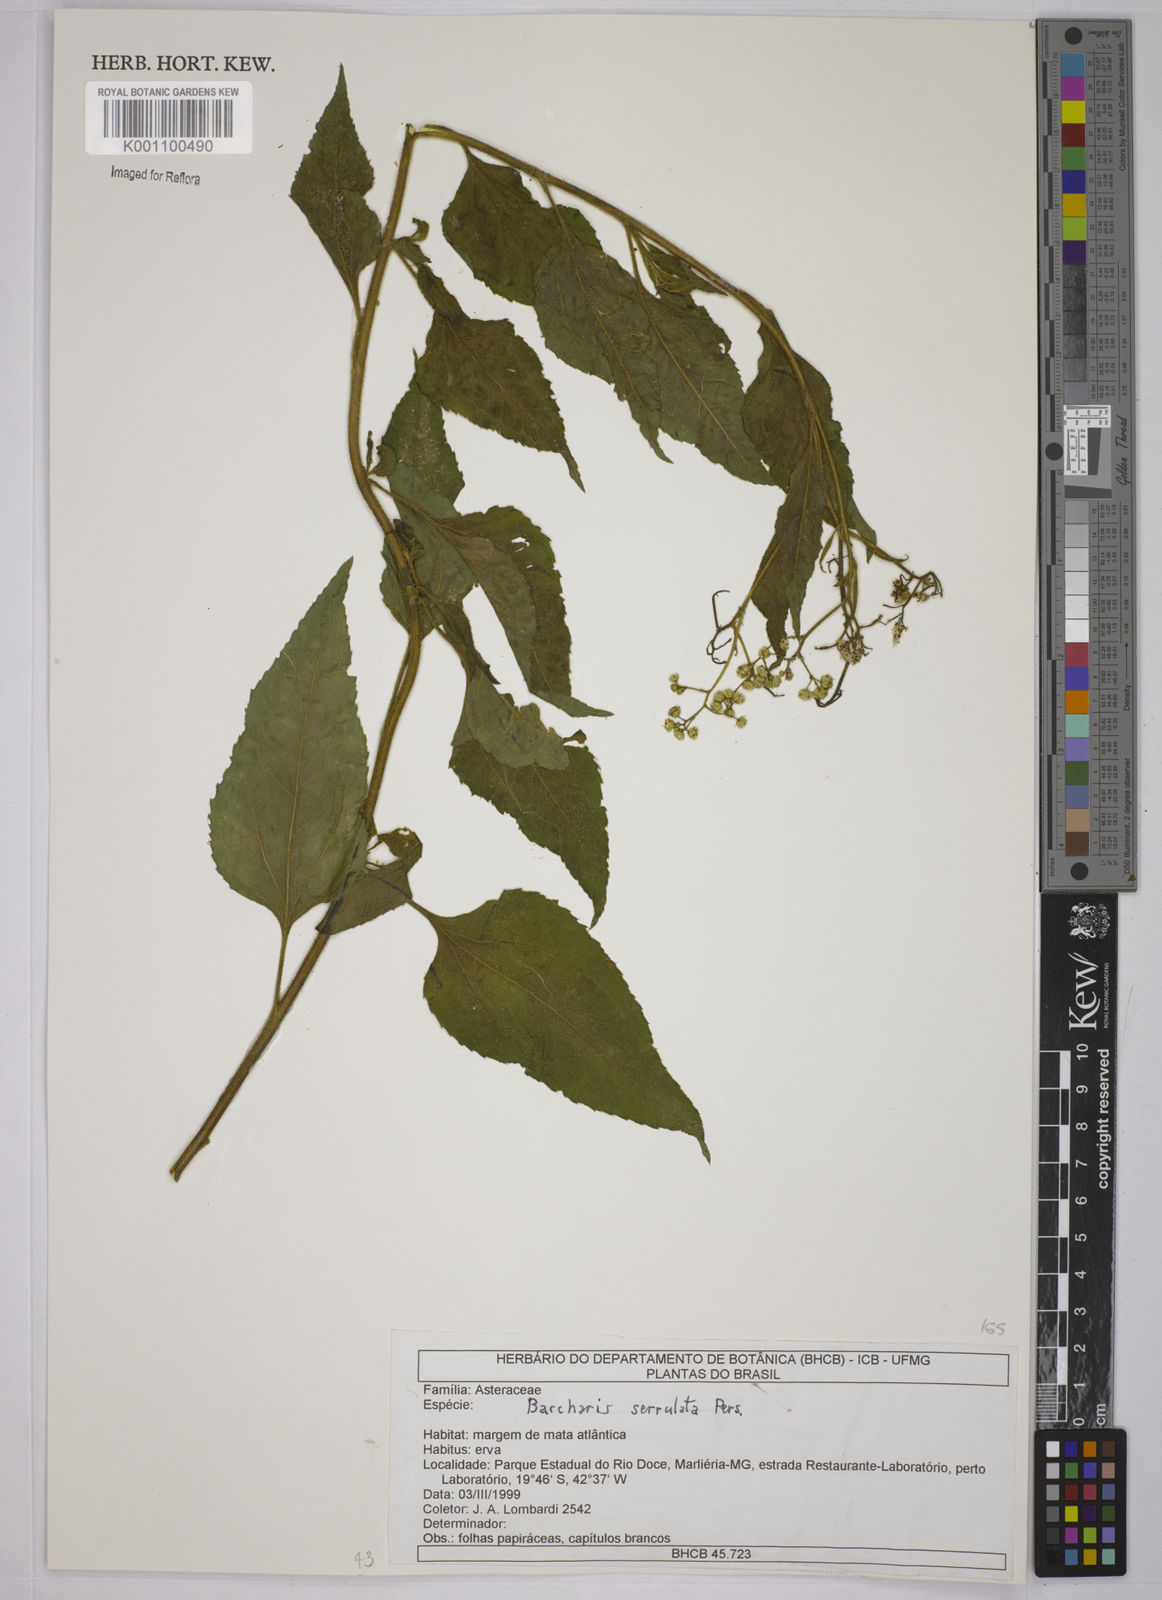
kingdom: Plantae
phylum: Tracheophyta
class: Magnoliopsida
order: Asterales
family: Asteraceae
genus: Baccharis
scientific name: Baccharis serrulata
